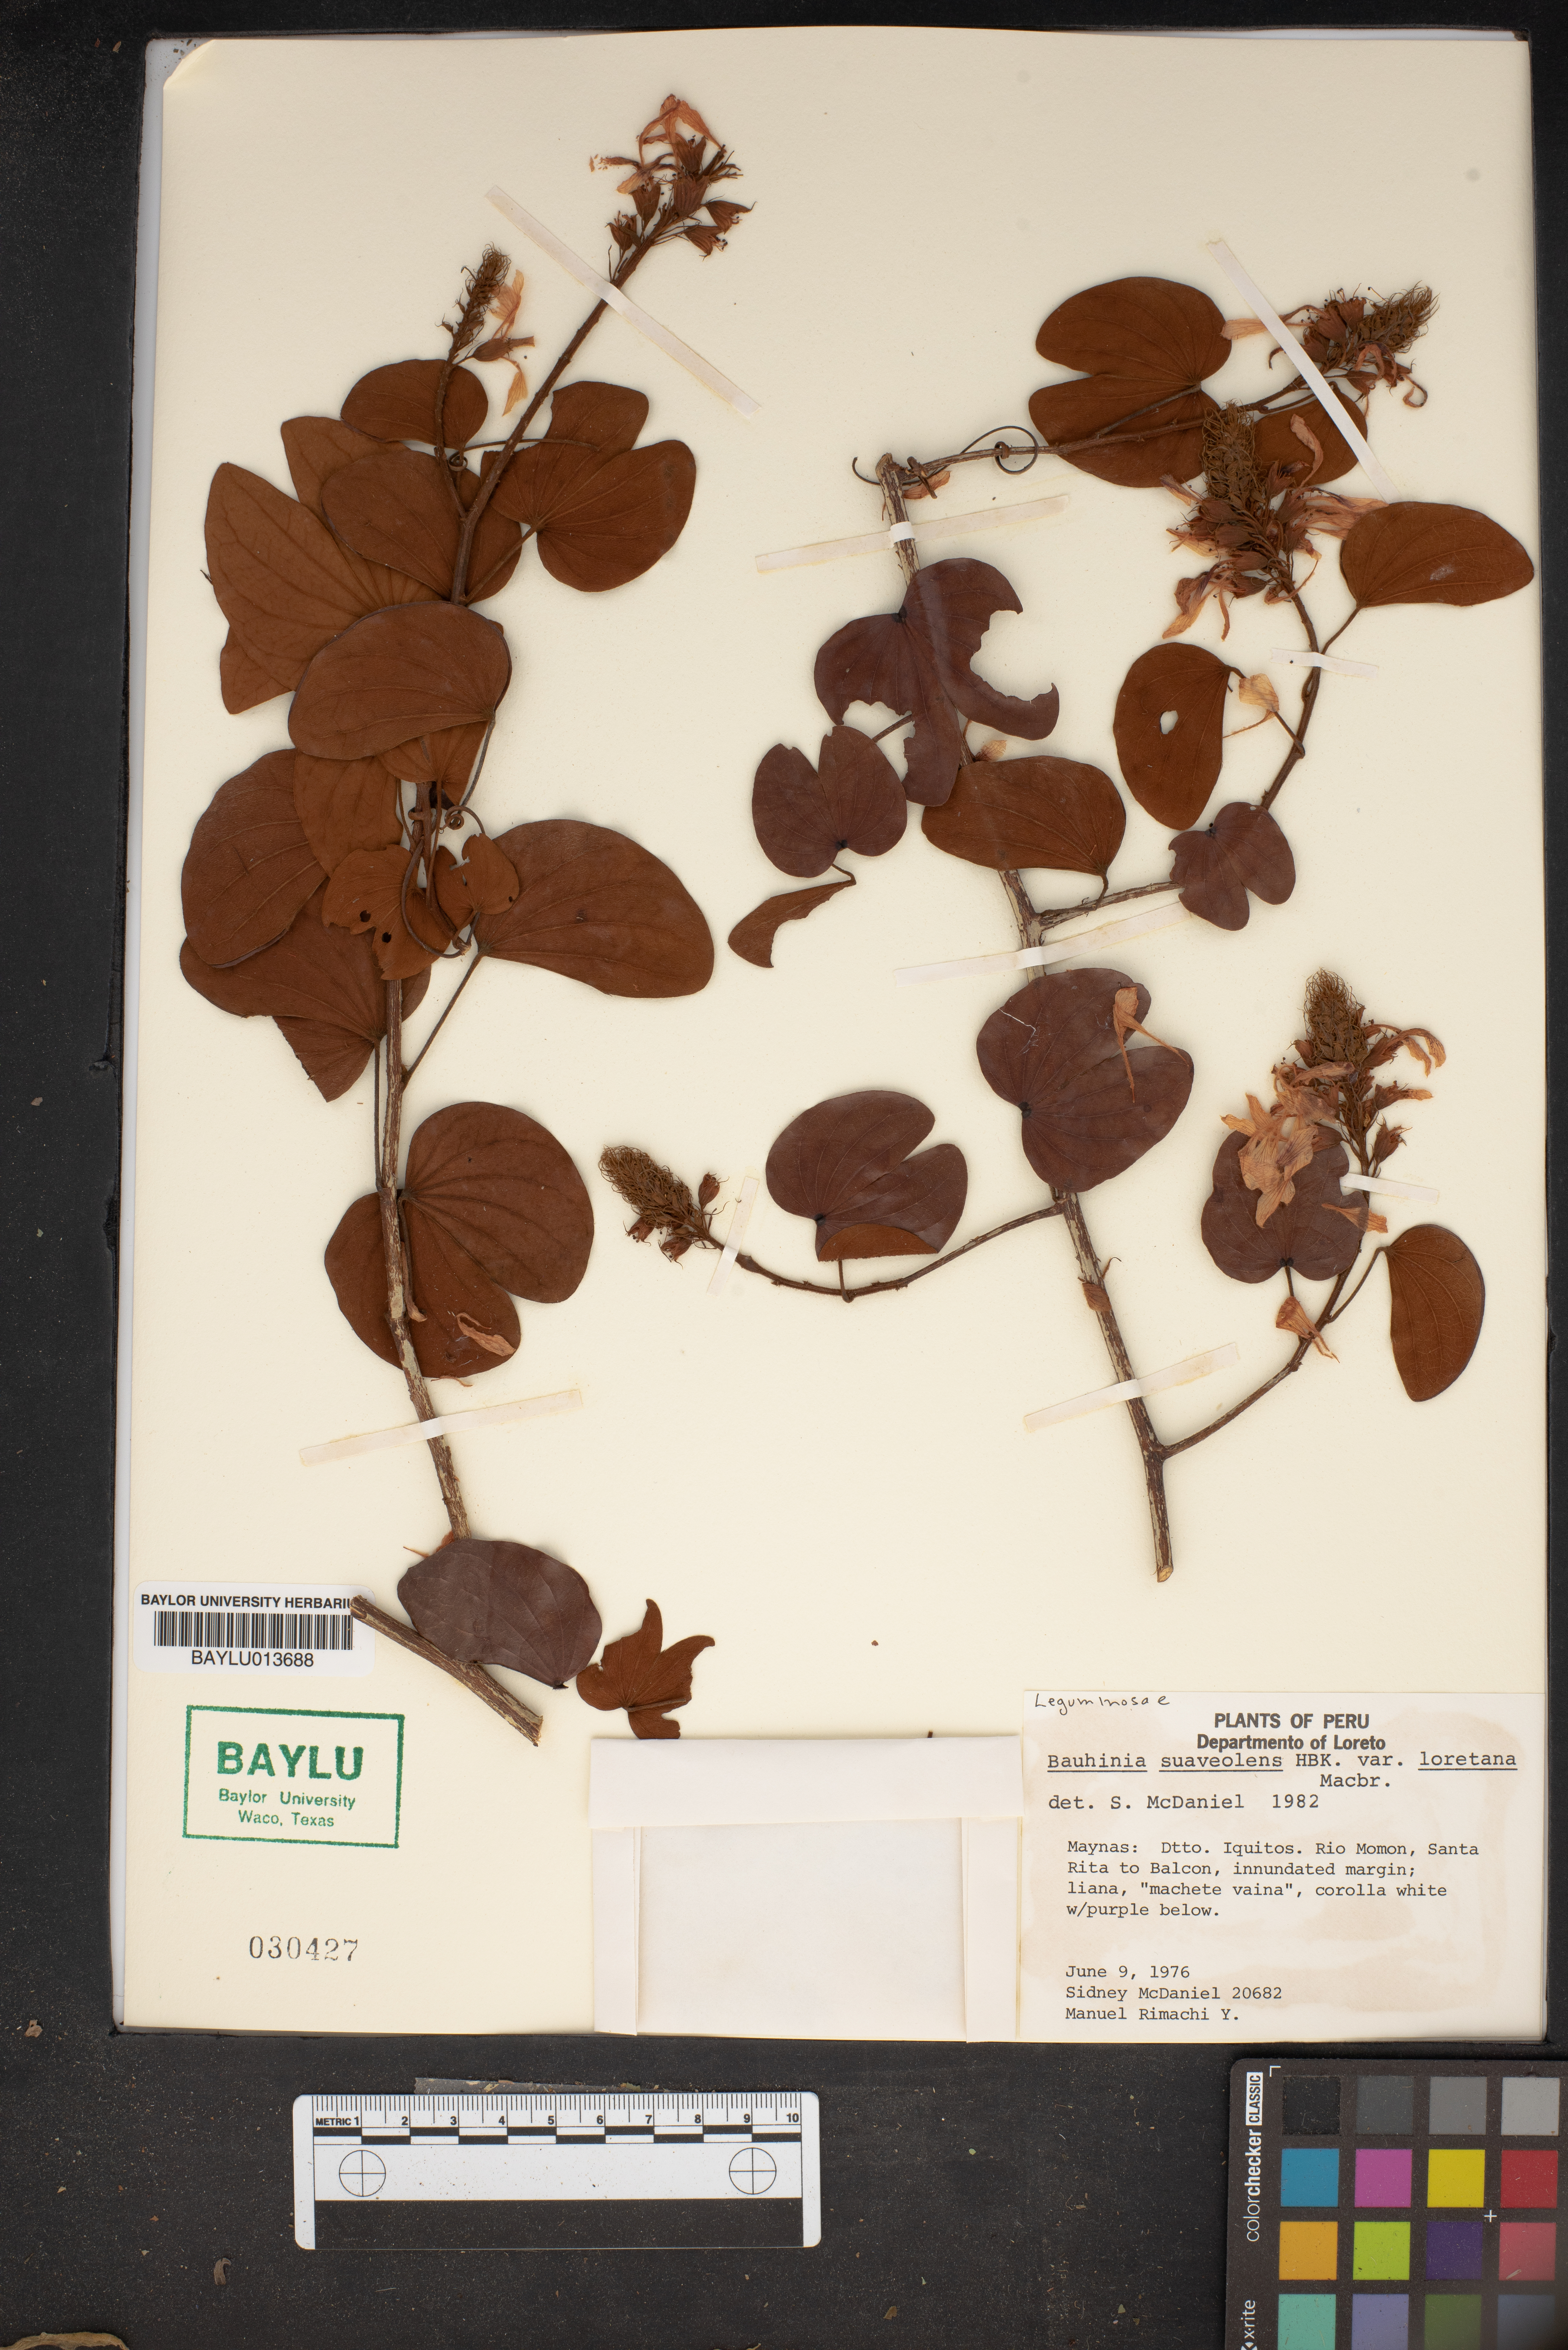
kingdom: Plantae
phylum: Tracheophyta
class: Magnoliopsida
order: Fabales
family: Fabaceae
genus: Schnella
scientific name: Schnella glabra
